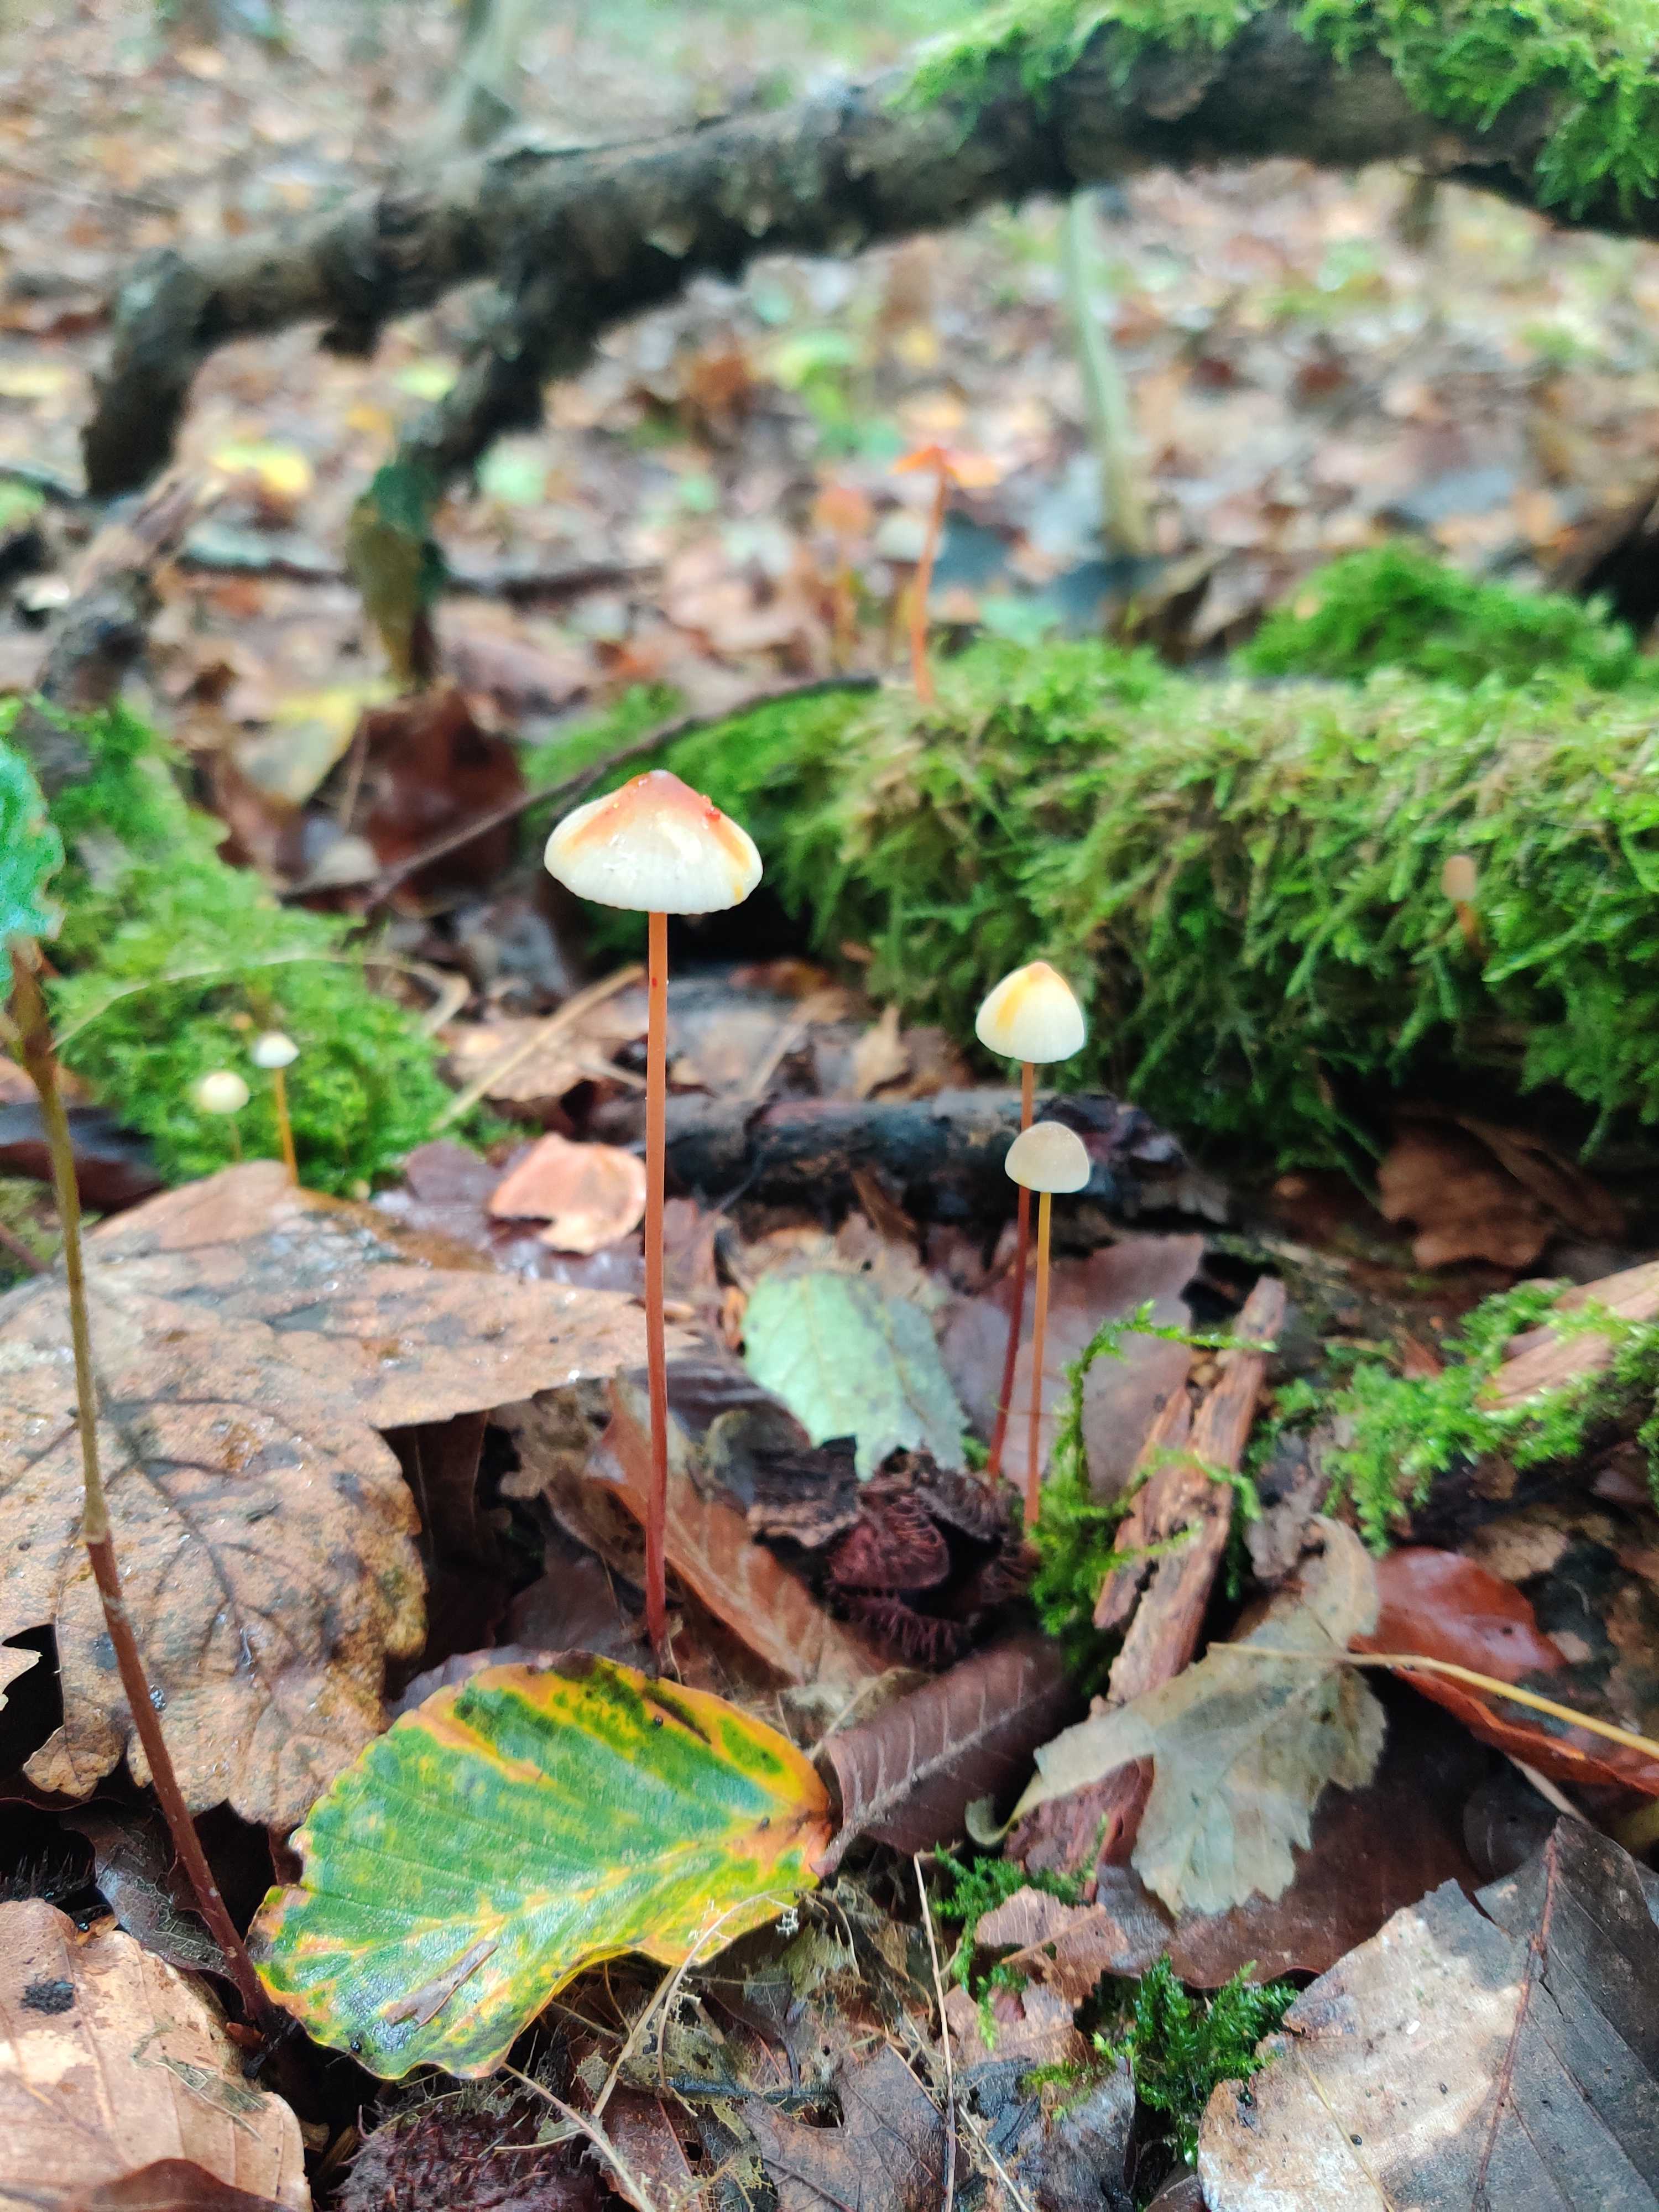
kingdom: Fungi
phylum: Basidiomycota
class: Agaricomycetes
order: Agaricales
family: Mycenaceae
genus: Mycena
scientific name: Mycena crocata
